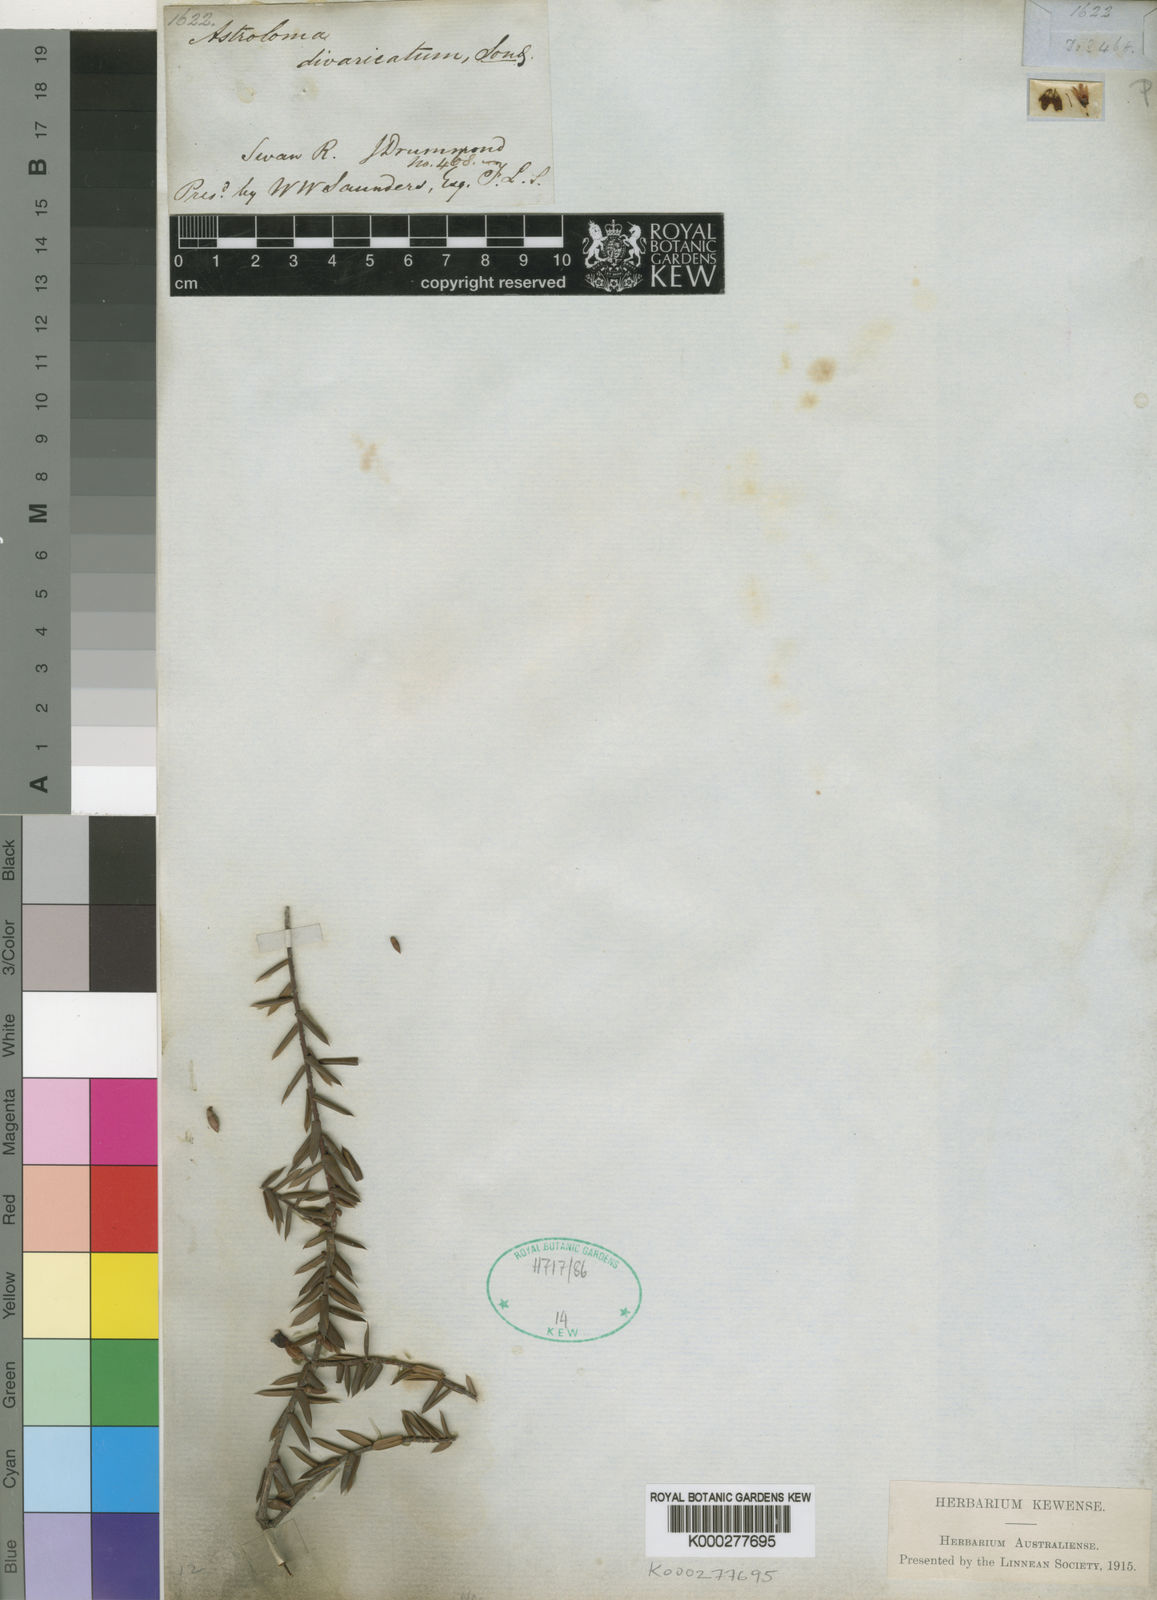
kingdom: Plantae
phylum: Tracheophyta
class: Magnoliopsida
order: Ericales
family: Ericaceae
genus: Styphelia
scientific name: Styphelia epacridis
